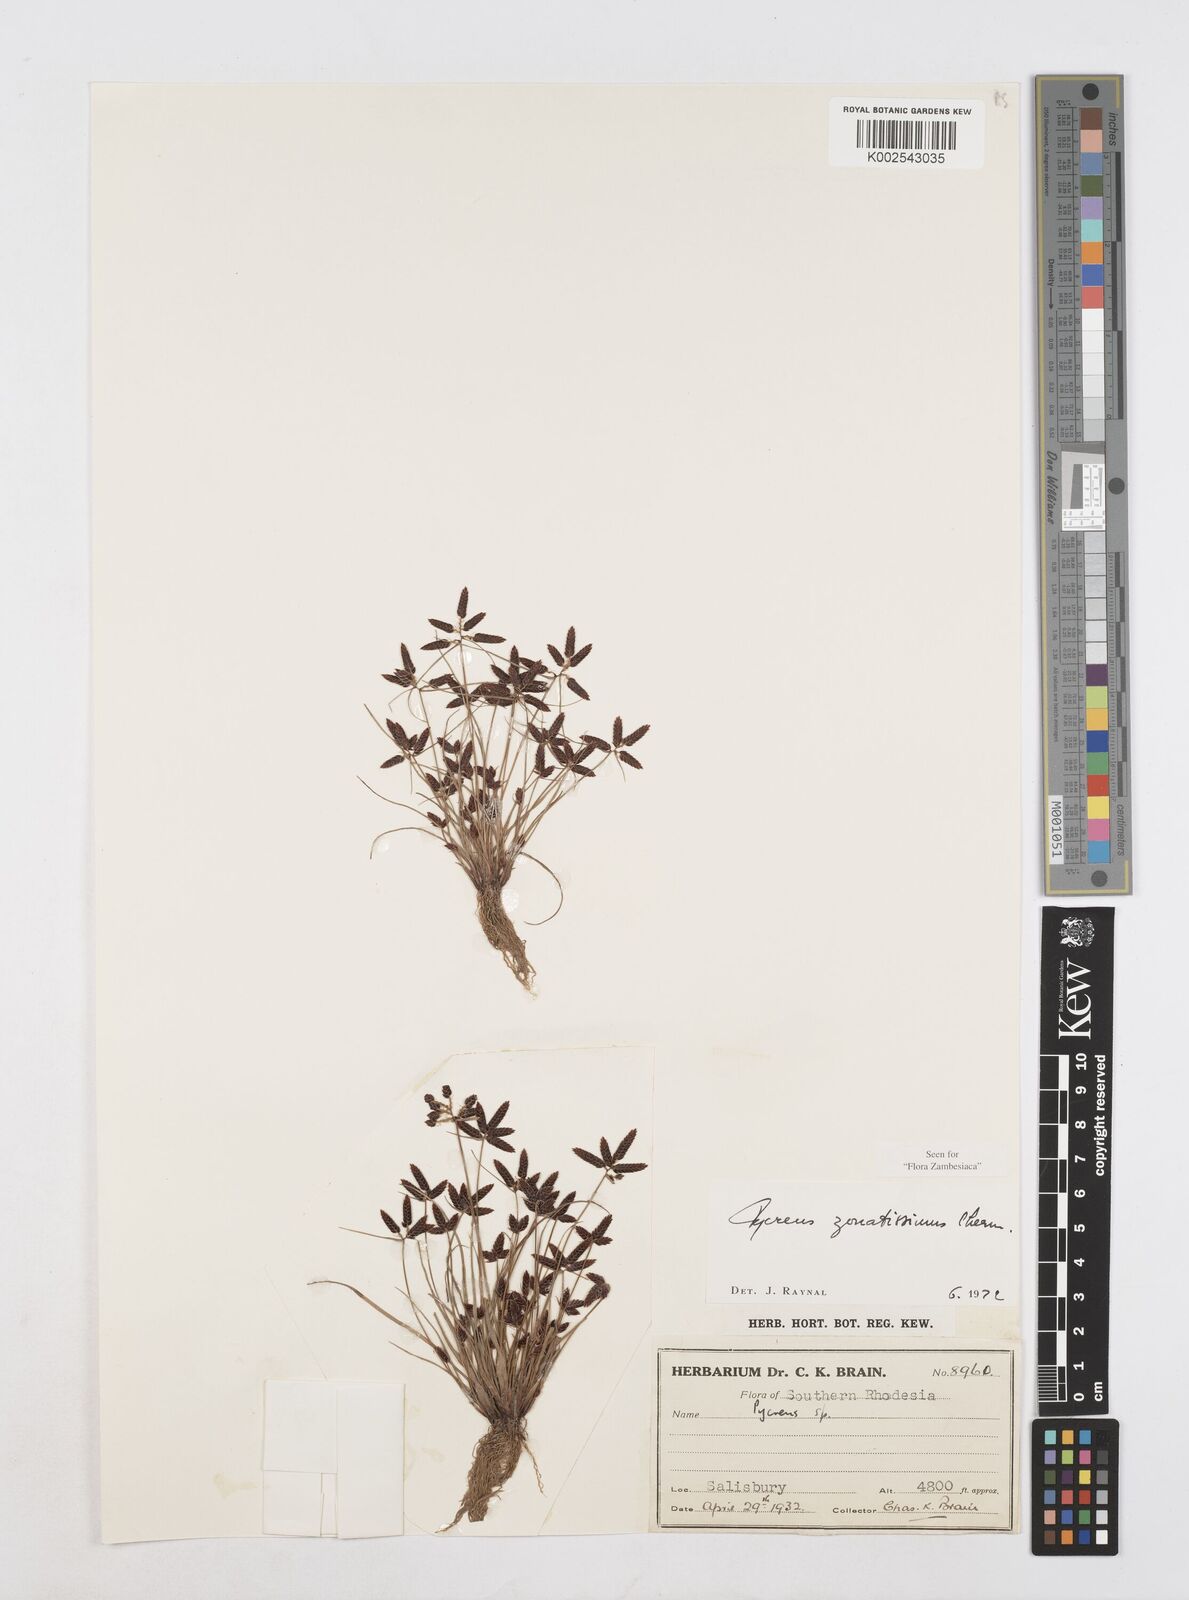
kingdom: Plantae
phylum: Tracheophyta
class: Liliopsida
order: Poales
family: Cyperaceae
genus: Cyperus
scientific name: Cyperus zonatissimus
